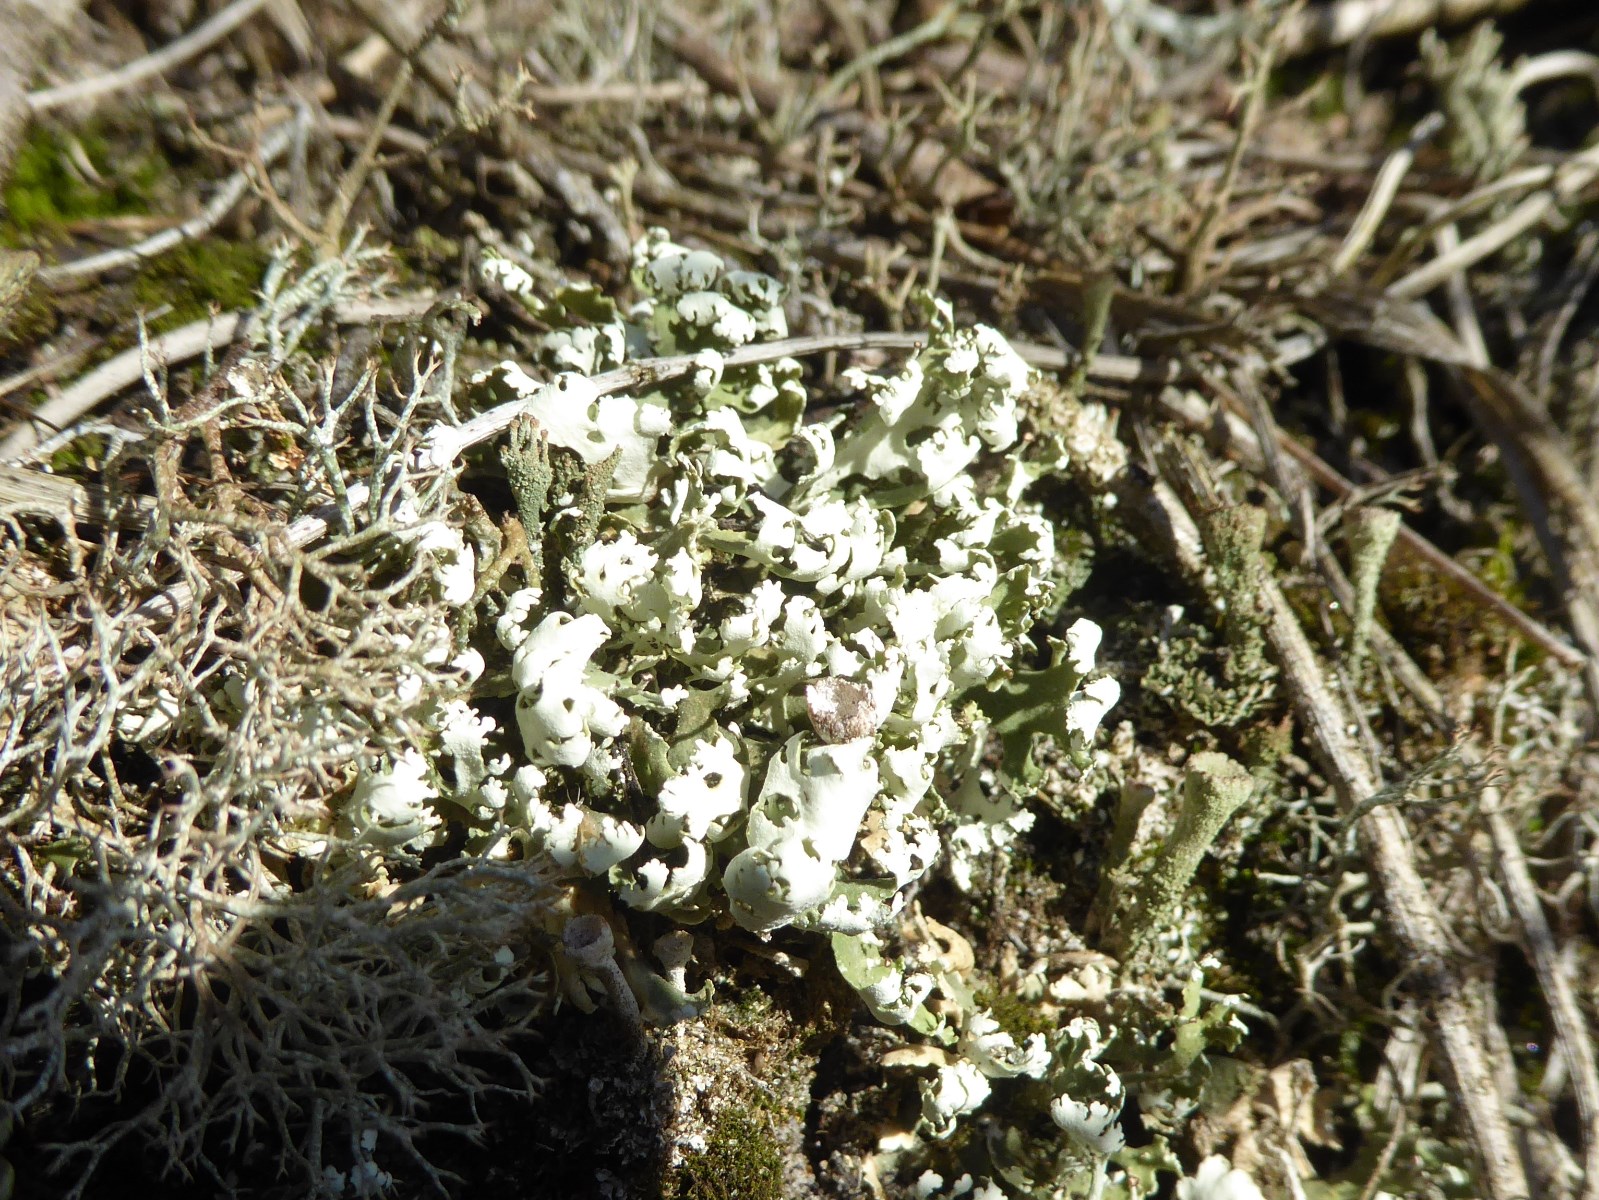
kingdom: Fungi
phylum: Ascomycota
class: Lecanoromycetes
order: Lecanorales
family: Cladoniaceae
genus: Cladonia
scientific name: Cladonia foliacea
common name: fliget bægerlav
